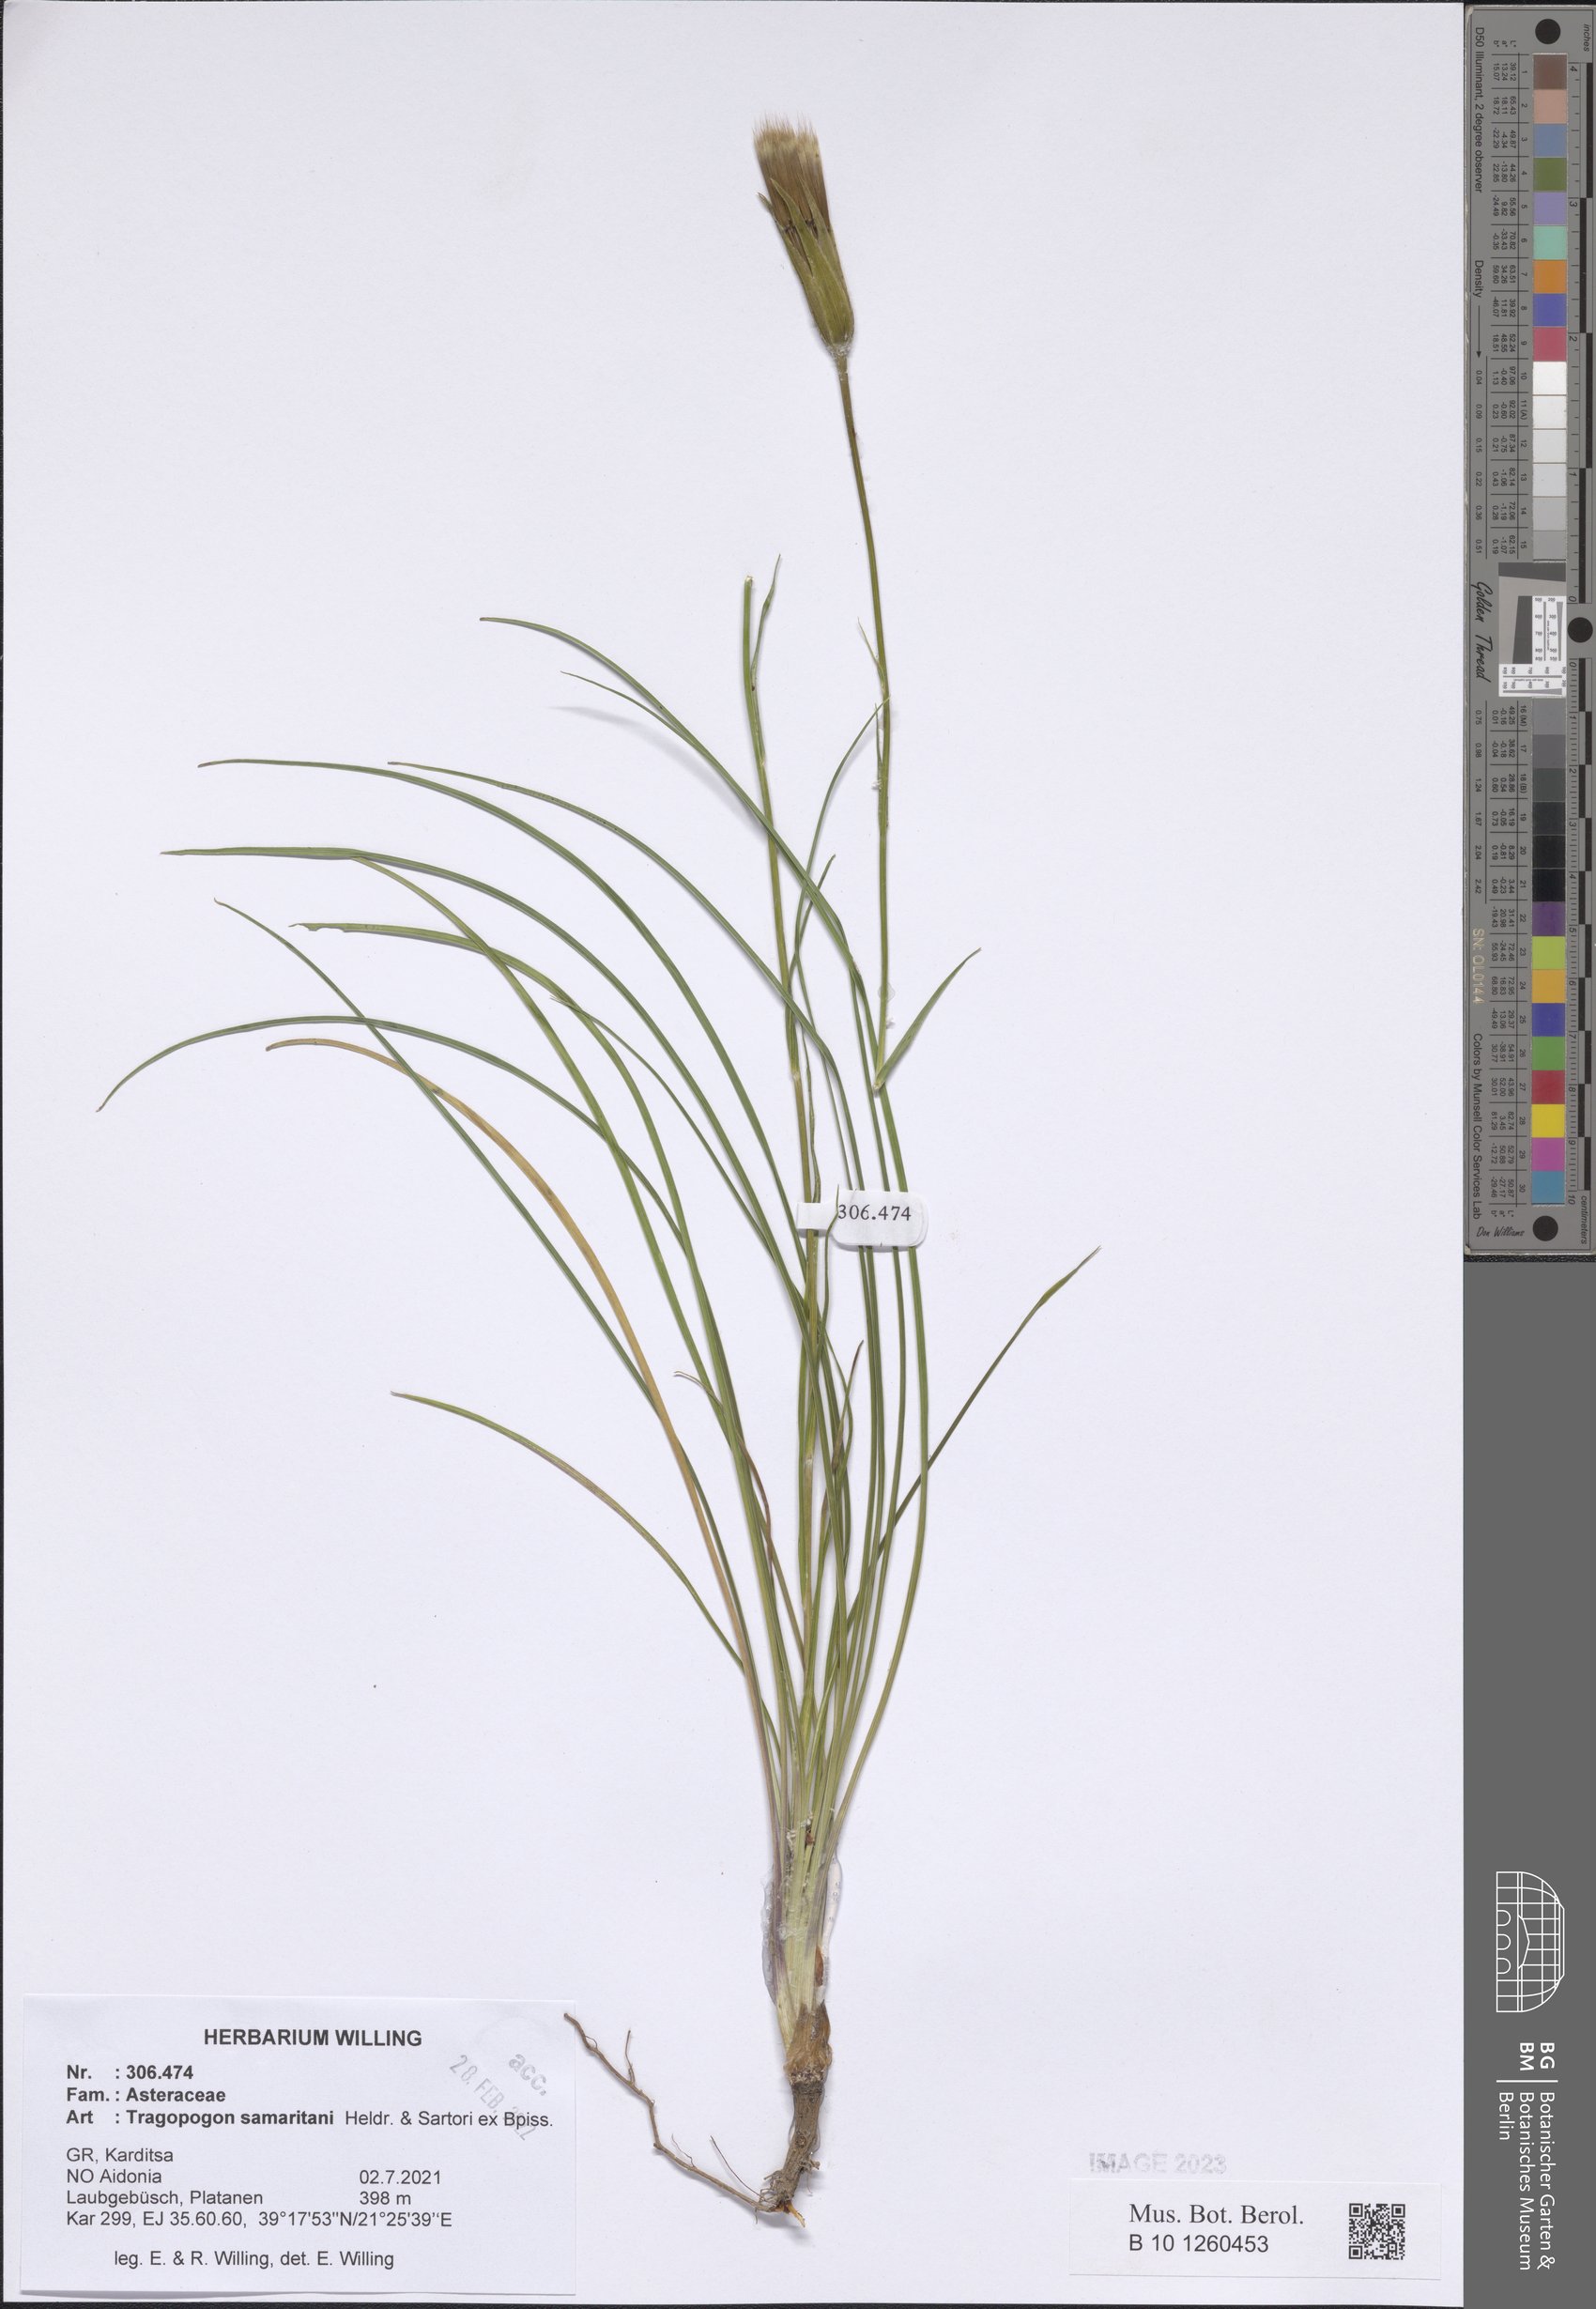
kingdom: Plantae
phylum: Tracheophyta
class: Magnoliopsida
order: Asterales
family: Asteraceae
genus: Tragopogon
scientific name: Tragopogon samaritani
